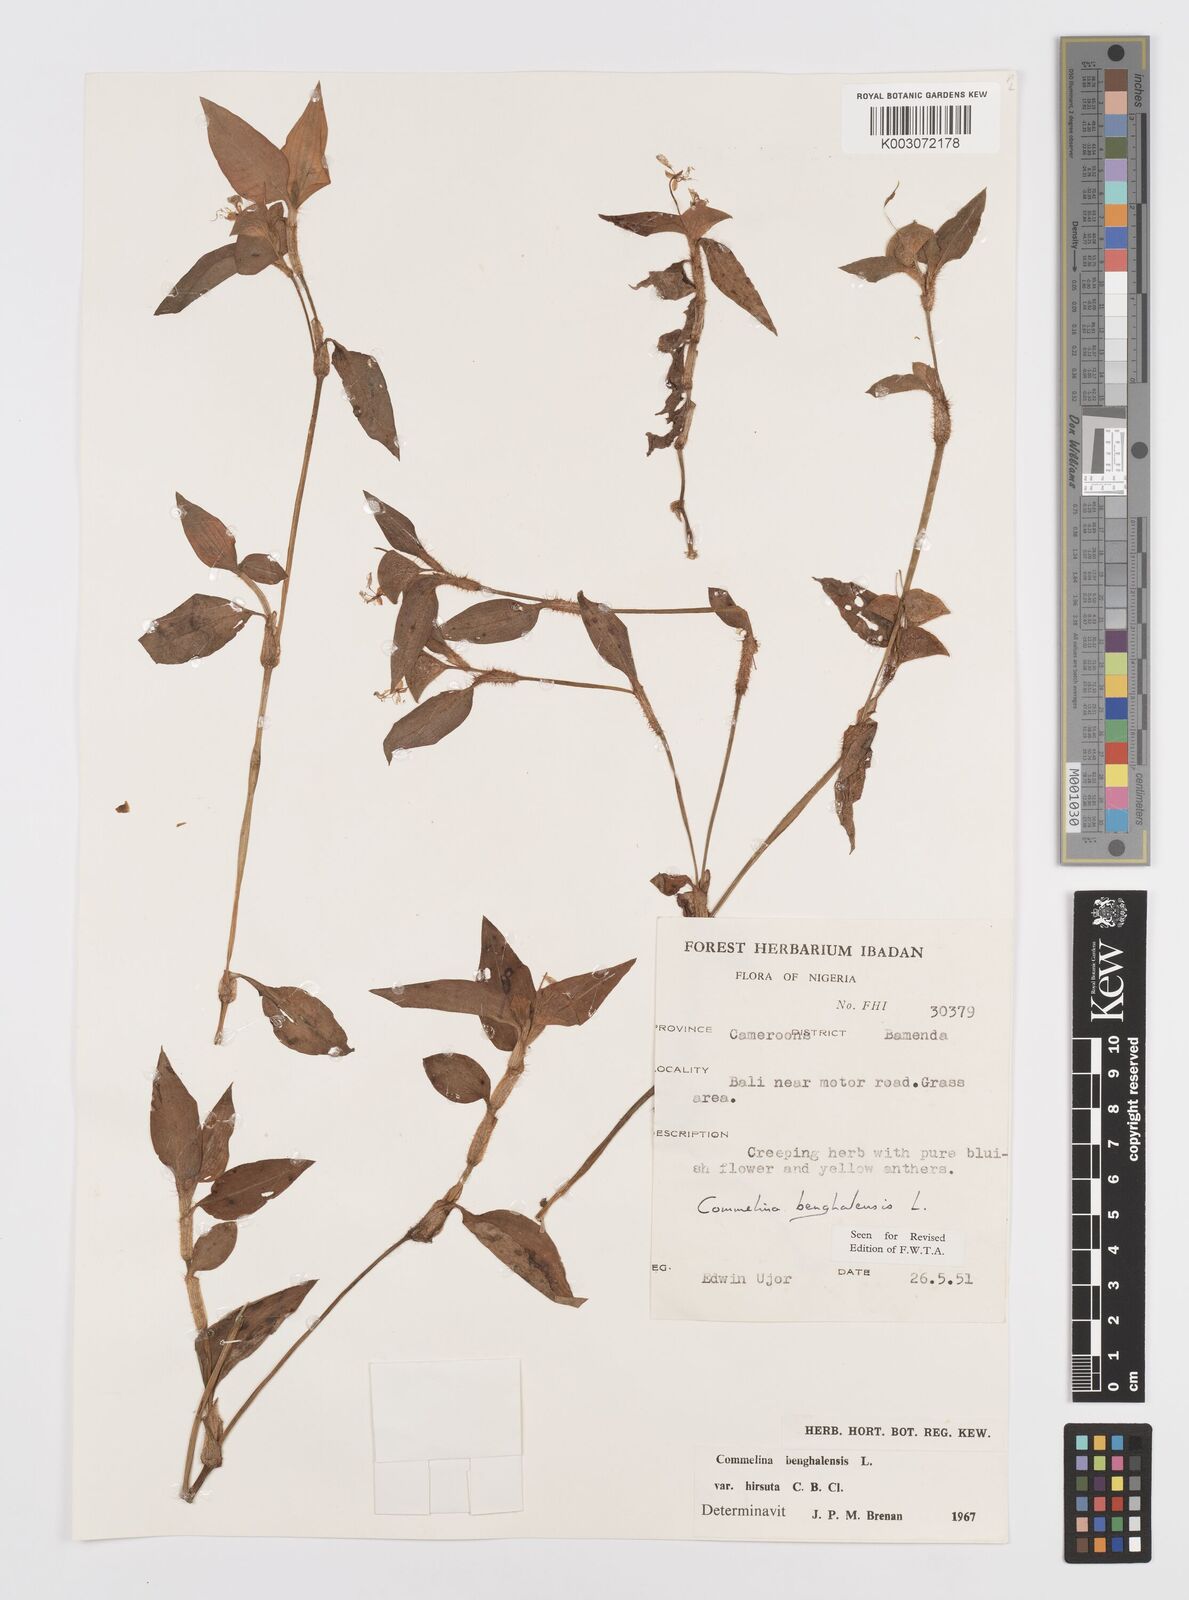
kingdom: Plantae
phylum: Tracheophyta
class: Liliopsida
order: Commelinales
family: Commelinaceae
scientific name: Commelinaceae
